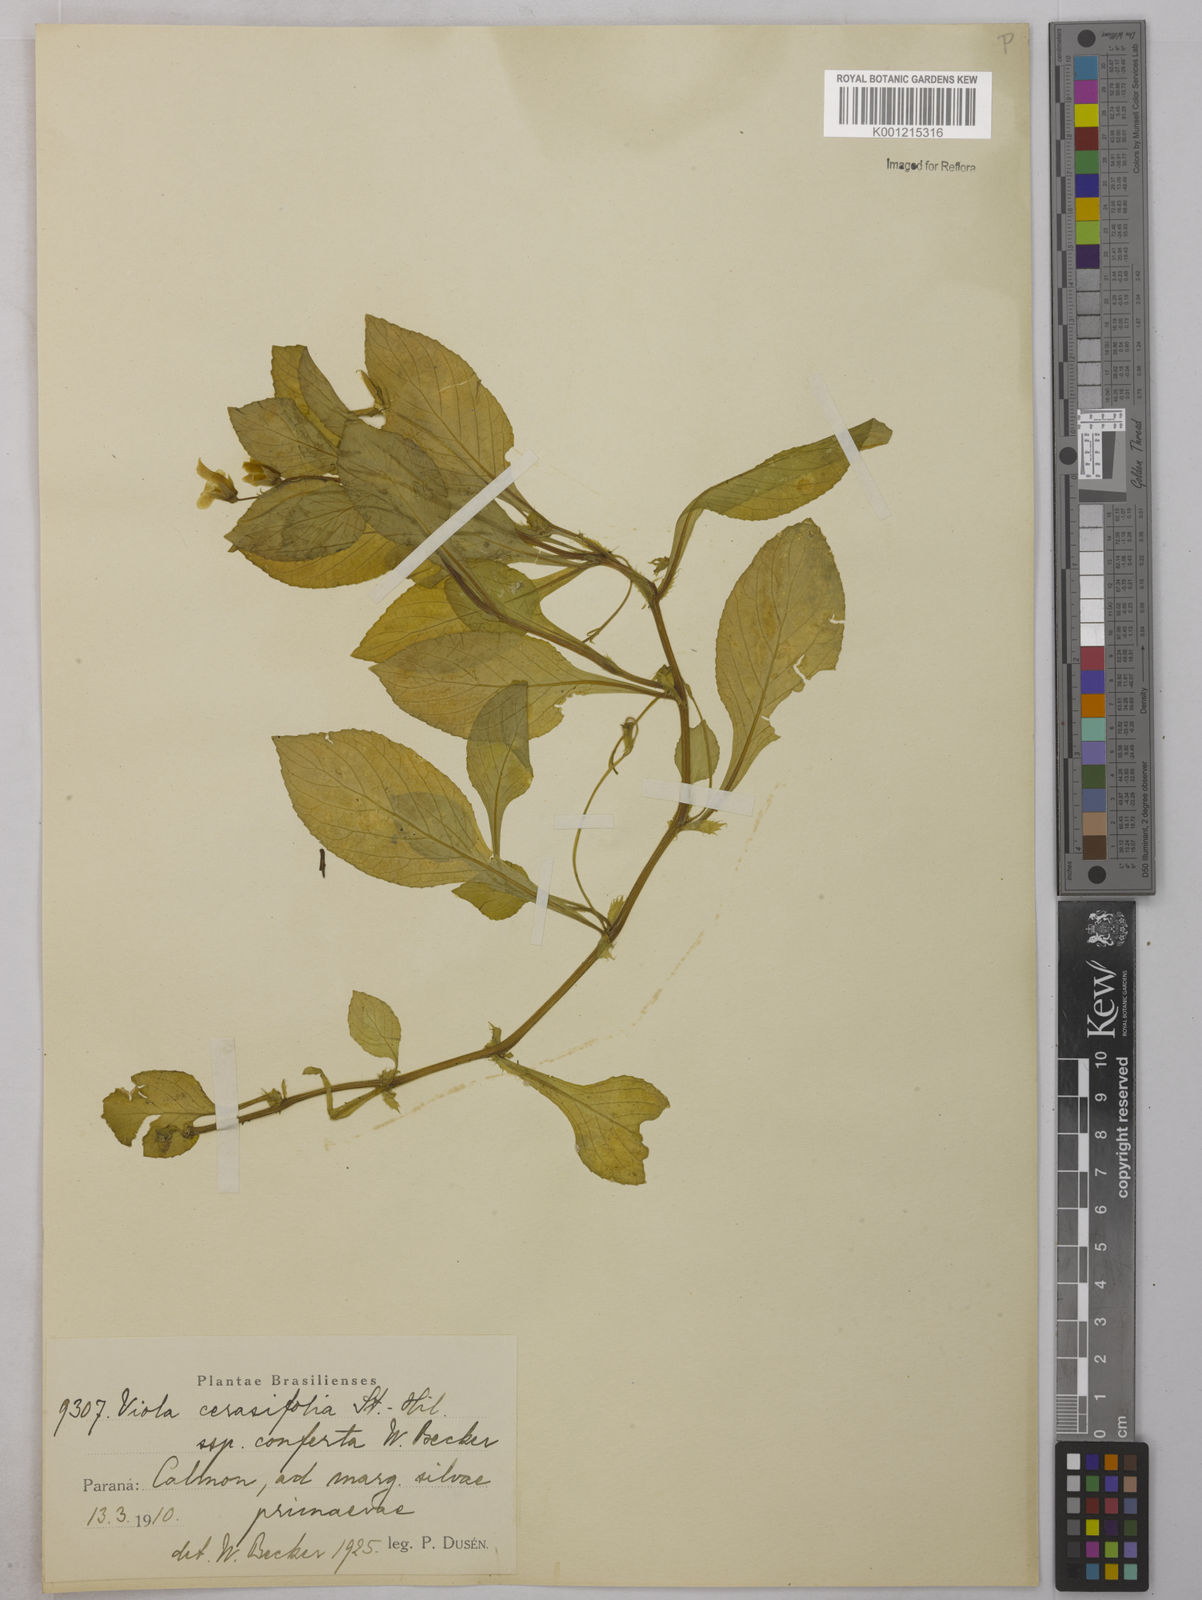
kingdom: Plantae
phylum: Tracheophyta
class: Magnoliopsida
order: Malpighiales
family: Violaceae
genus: Viola
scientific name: Viola cerasifolia
